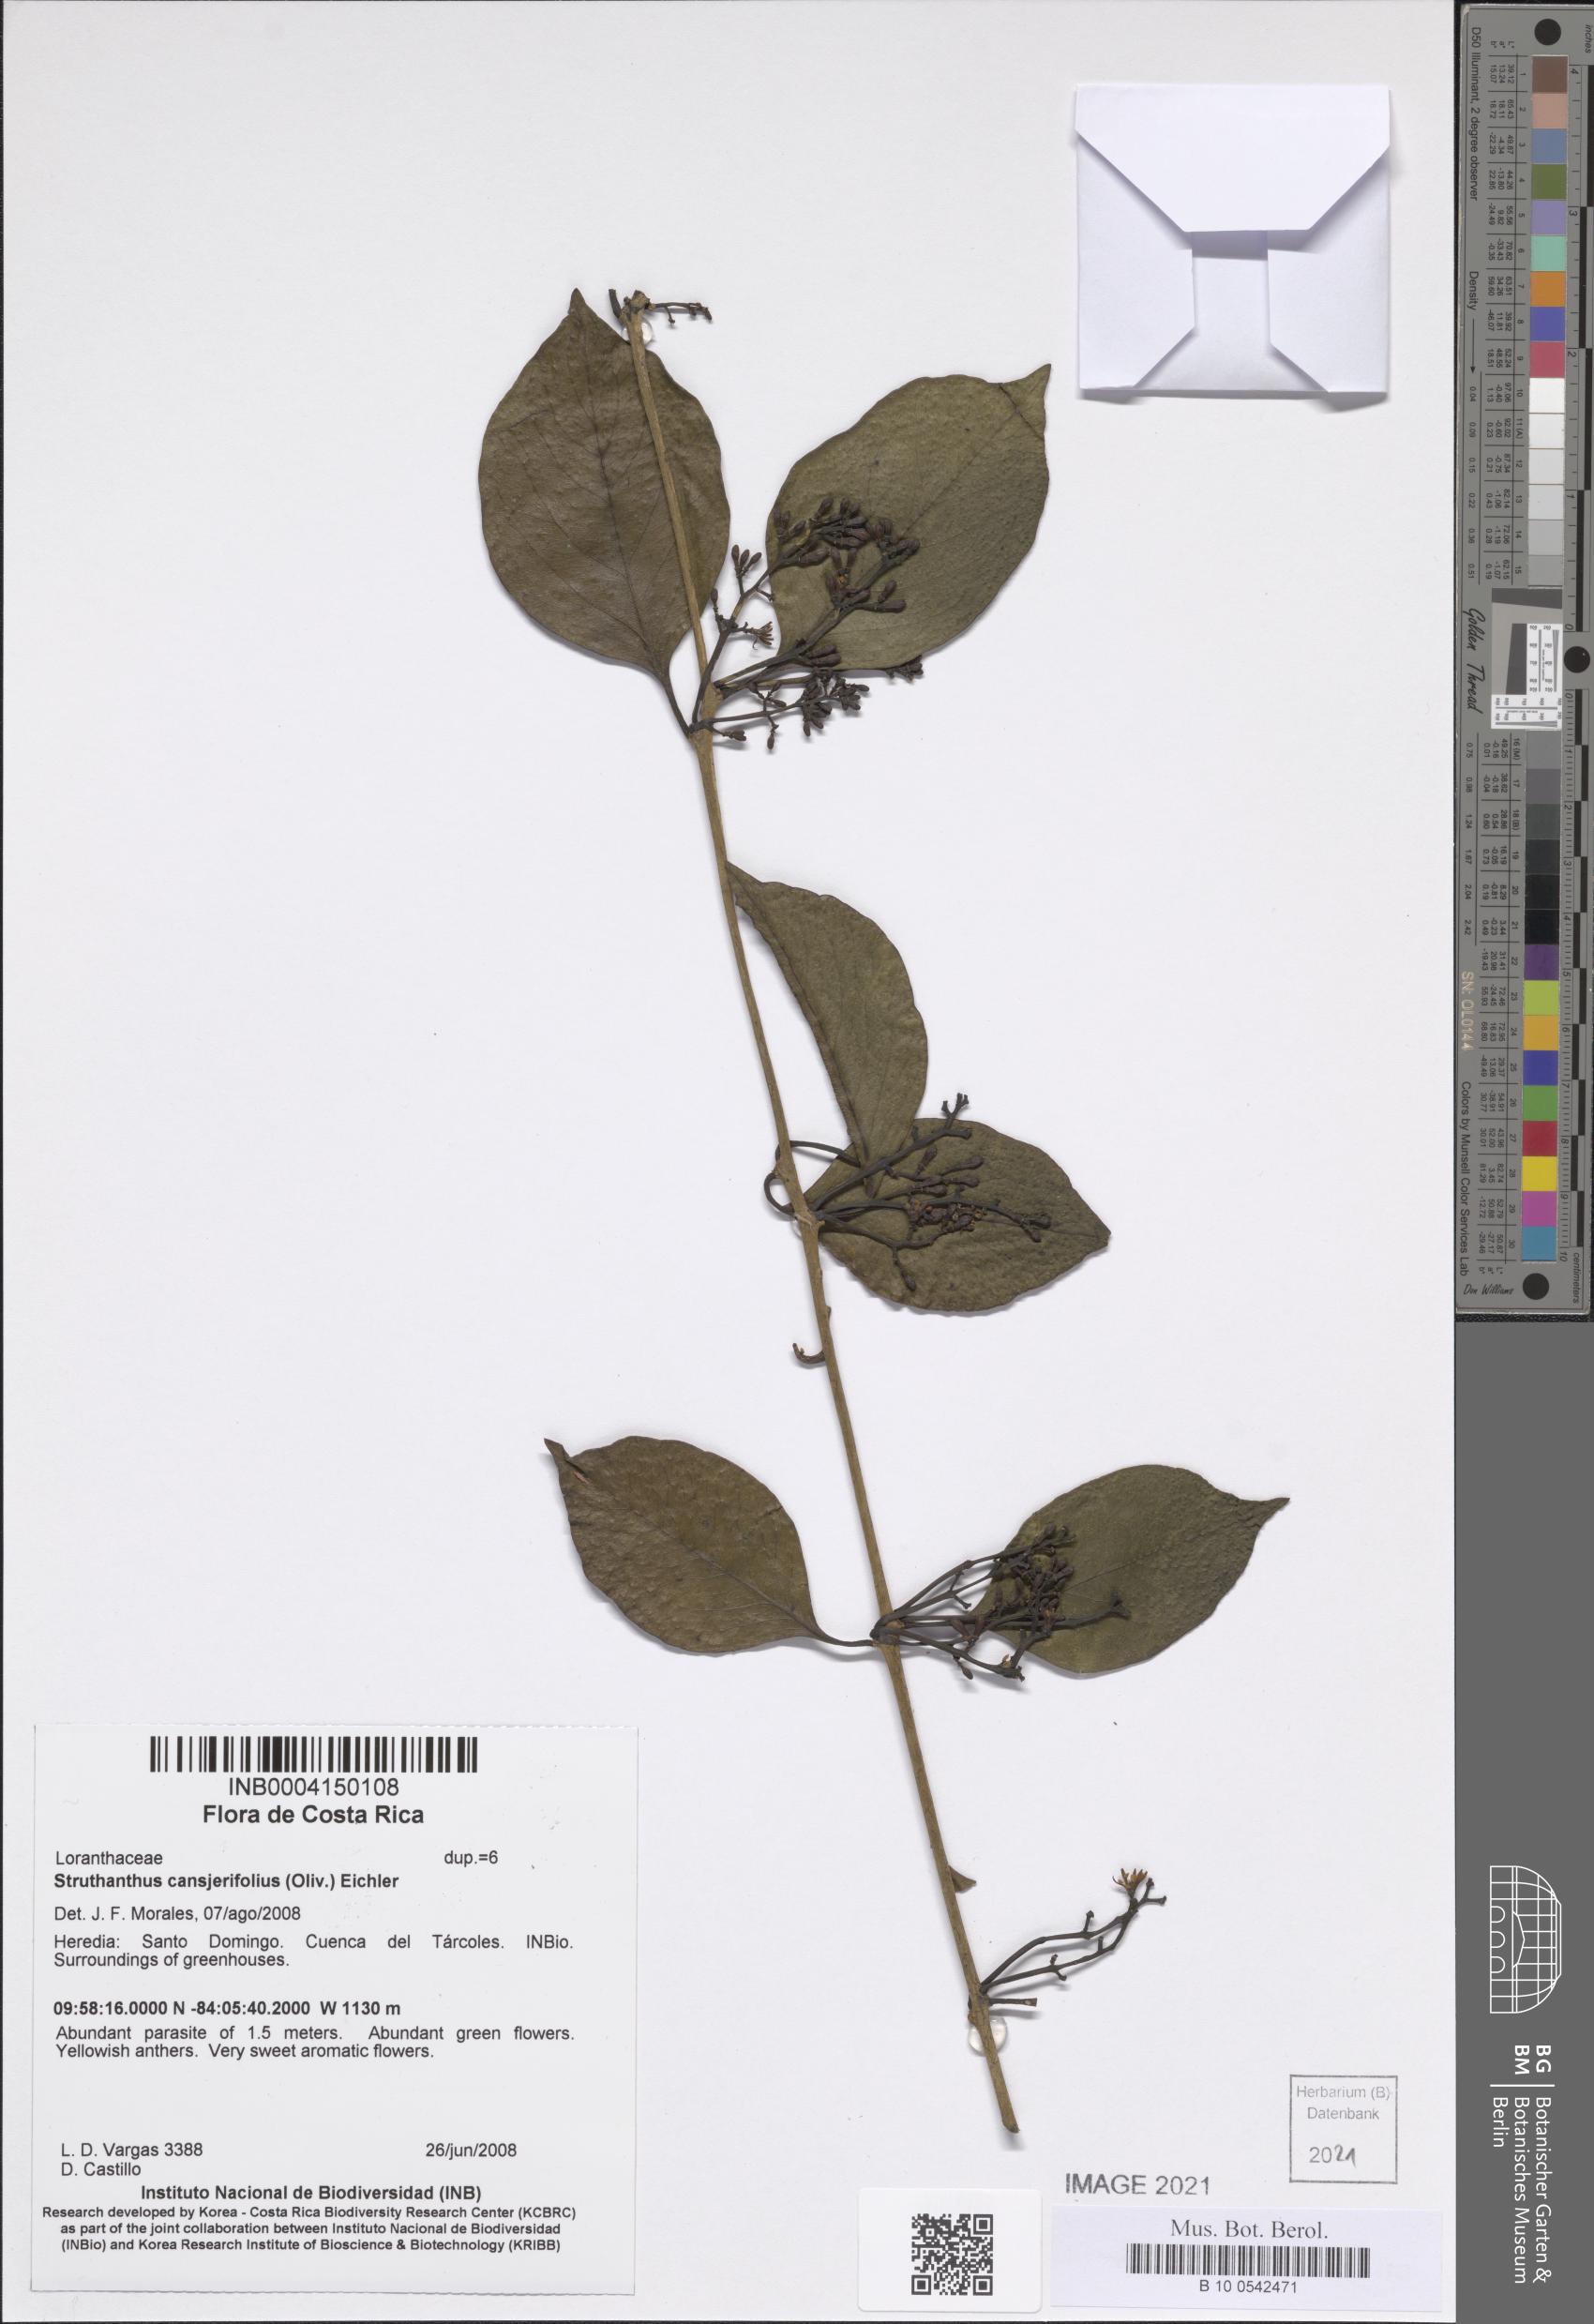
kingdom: Plantae
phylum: Tracheophyta
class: Magnoliopsida
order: Santalales
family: Loranthaceae
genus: Struthanthus
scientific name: Struthanthus cansjerifolius
